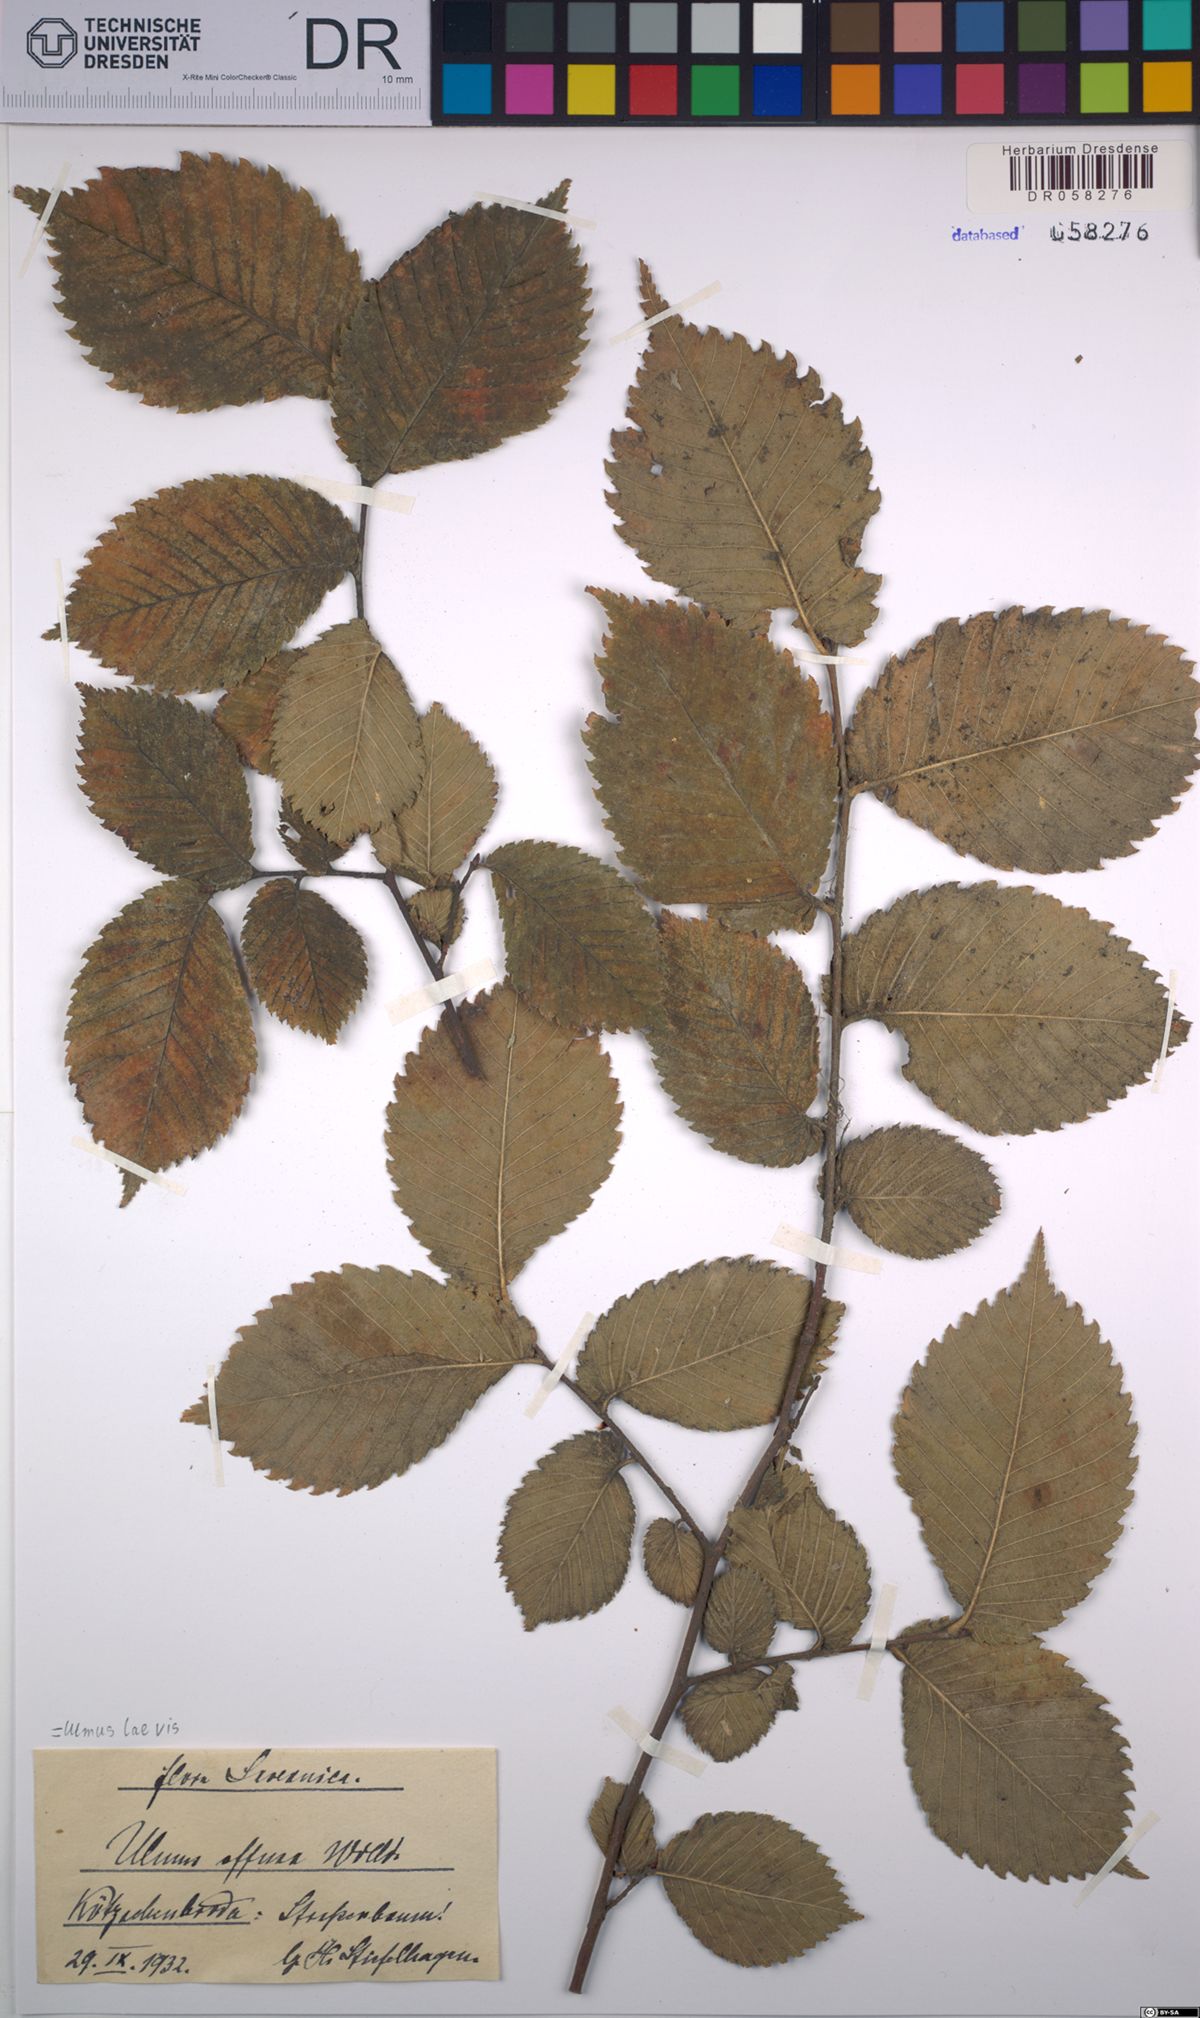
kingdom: Plantae
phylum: Tracheophyta
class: Magnoliopsida
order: Rosales
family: Ulmaceae
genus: Ulmus
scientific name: Ulmus laevis
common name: European white-elm
